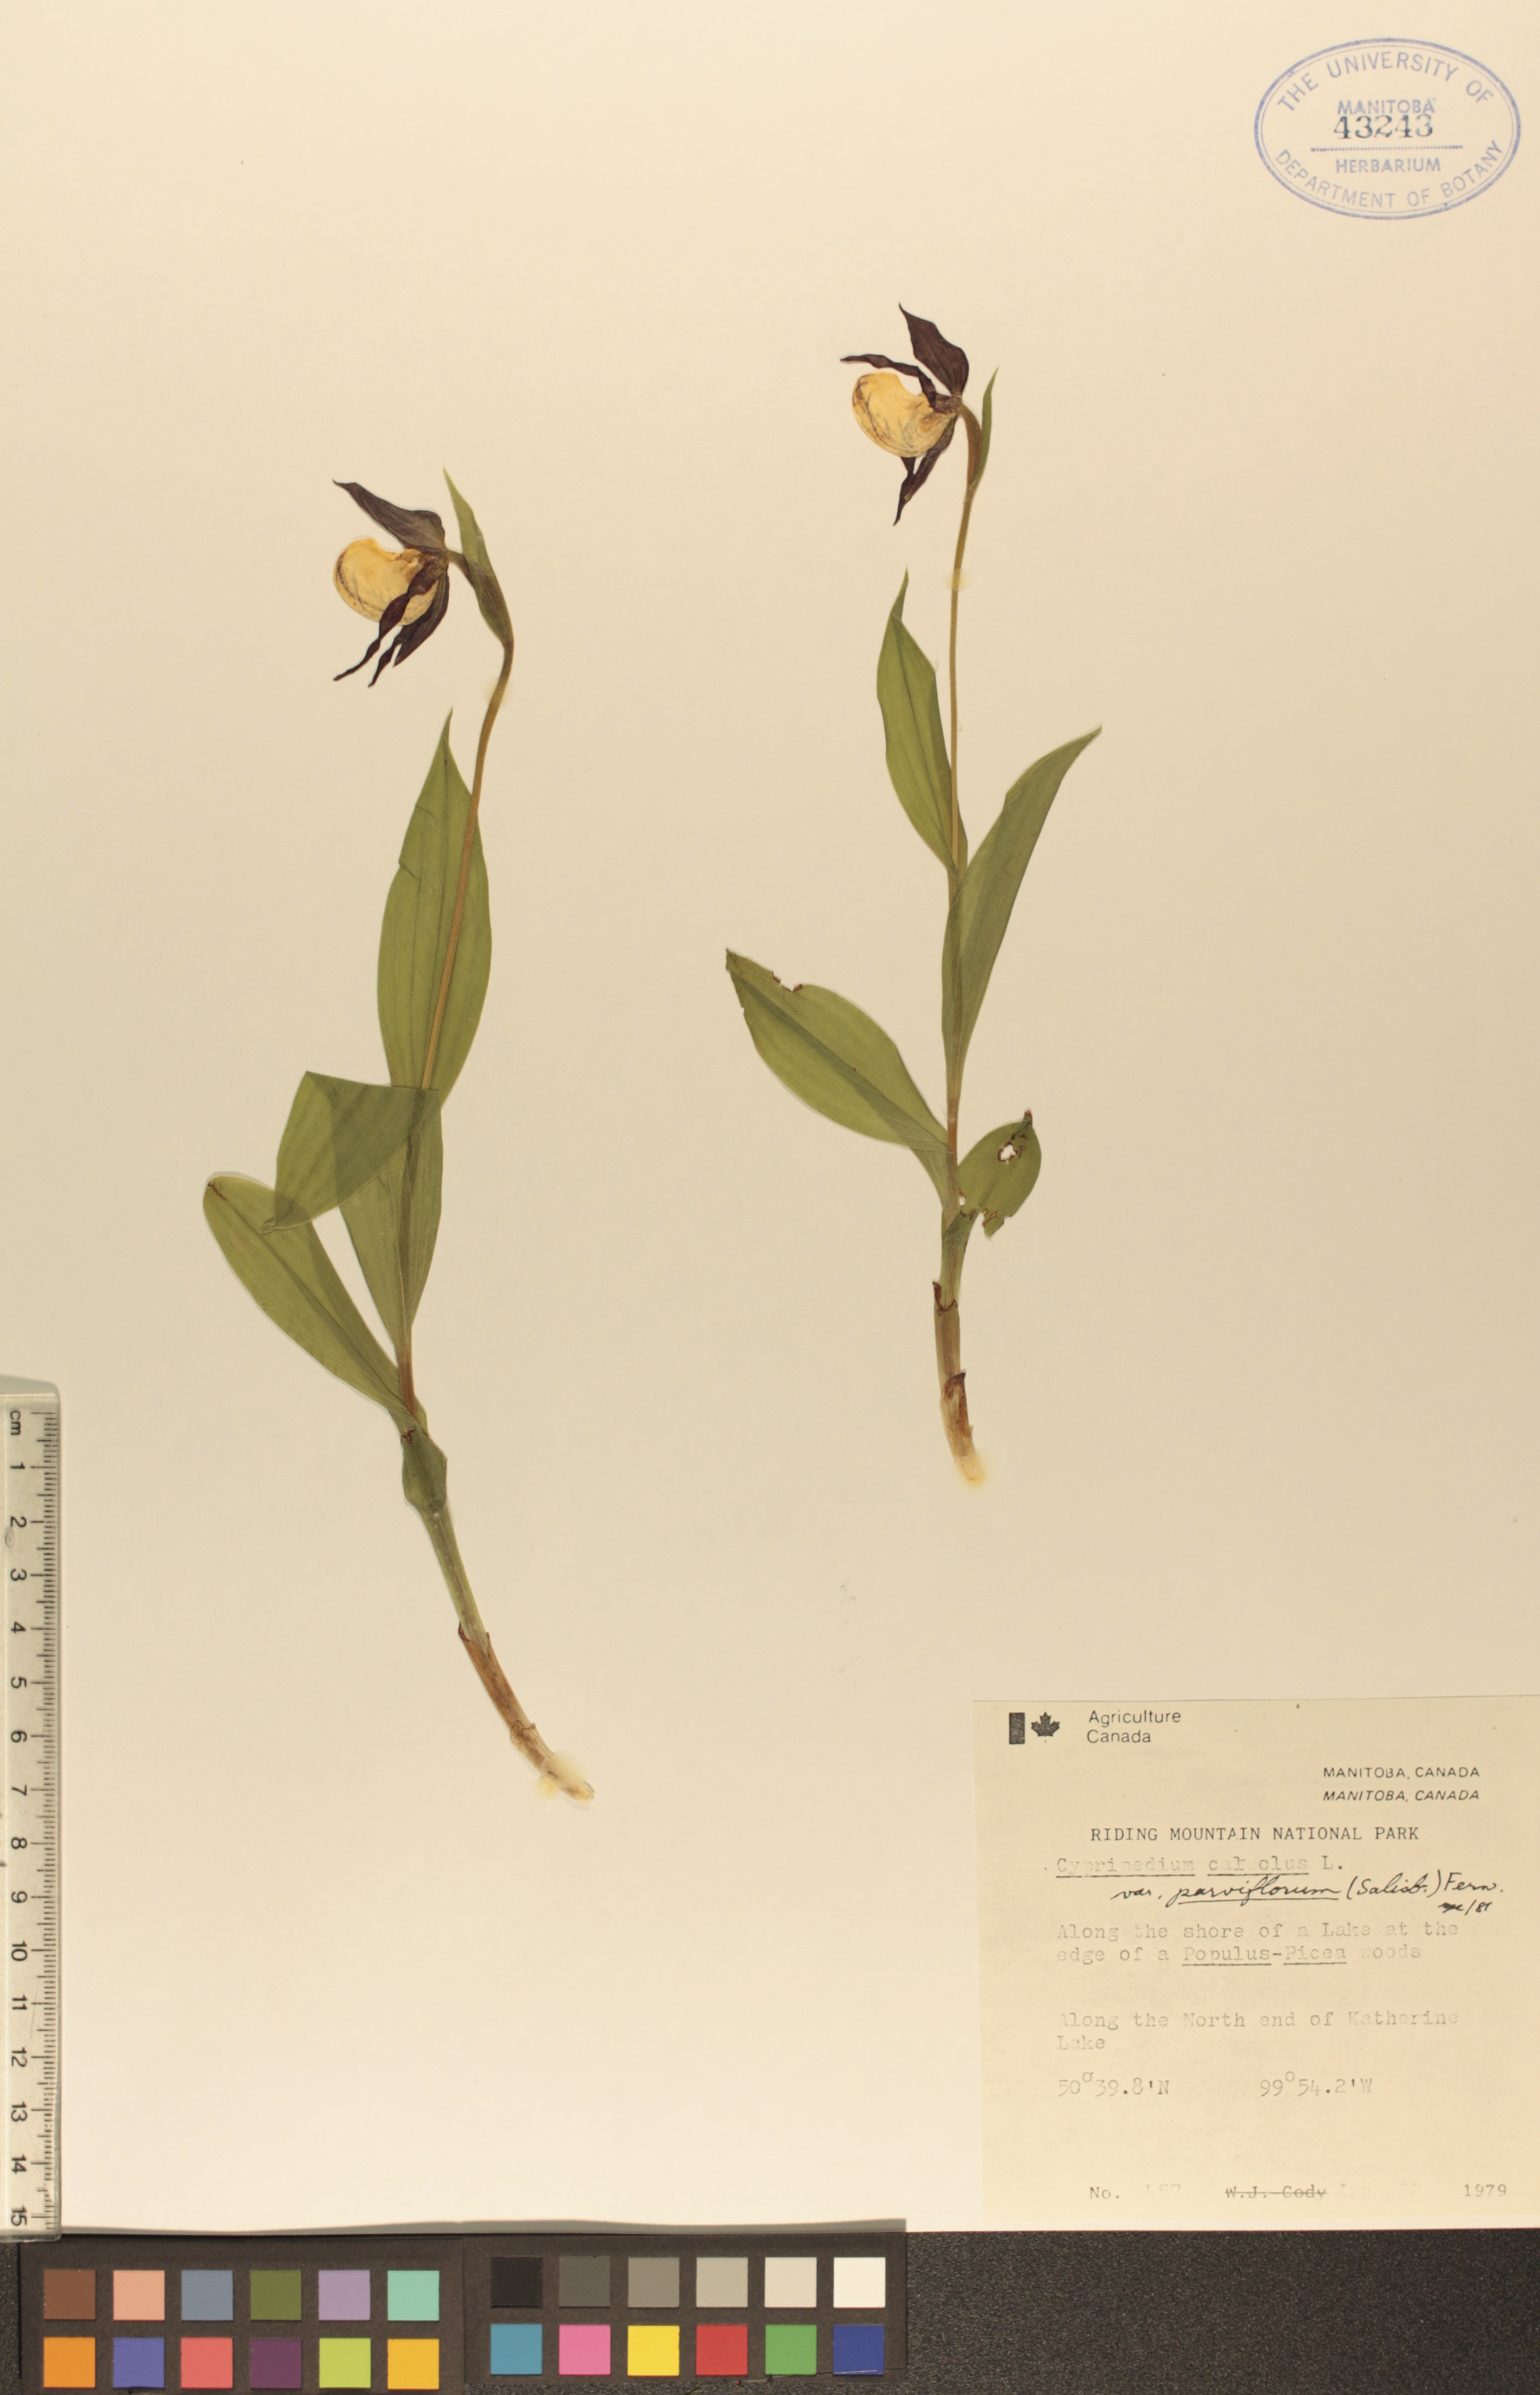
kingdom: Plantae
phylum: Tracheophyta
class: Liliopsida
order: Asparagales
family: Orchidaceae
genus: Cypripedium
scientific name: Cypripedium parviflorum
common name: American yellow lady's-slipper
